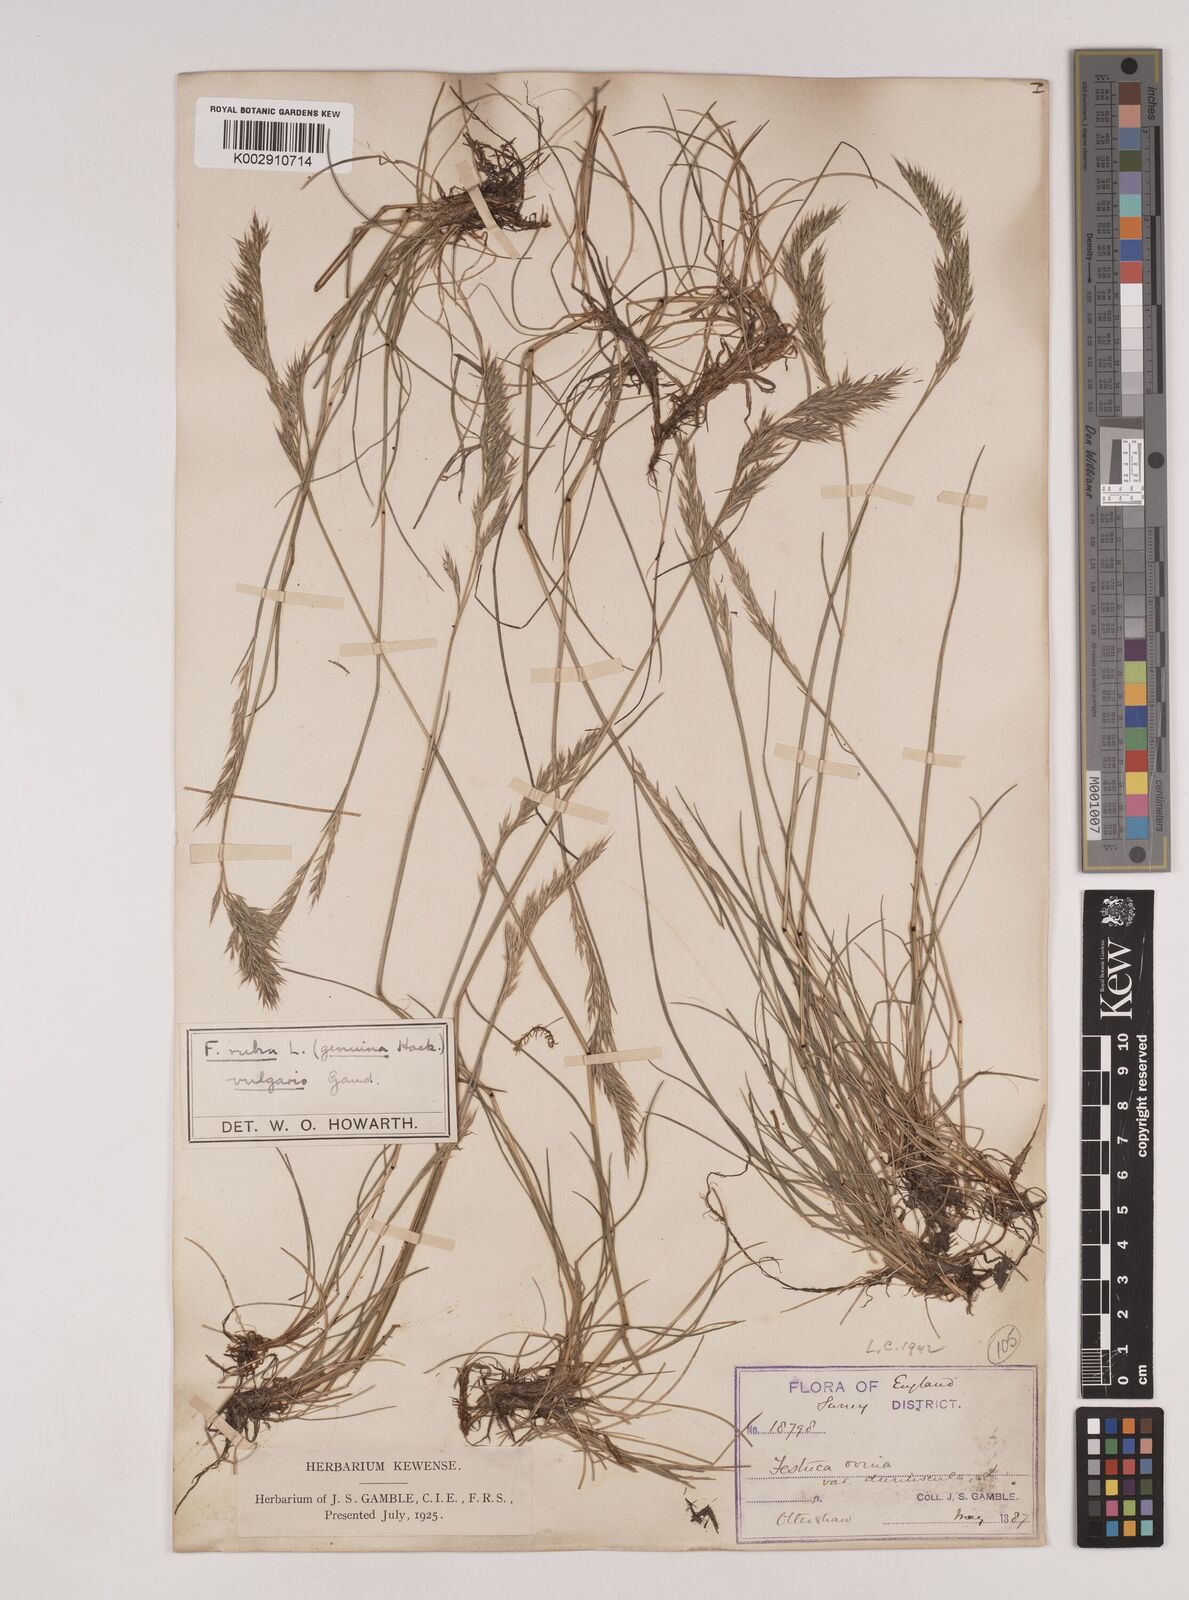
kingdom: Plantae
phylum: Tracheophyta
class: Liliopsida
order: Poales
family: Poaceae
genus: Festuca
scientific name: Festuca rubra
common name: Red fescue
